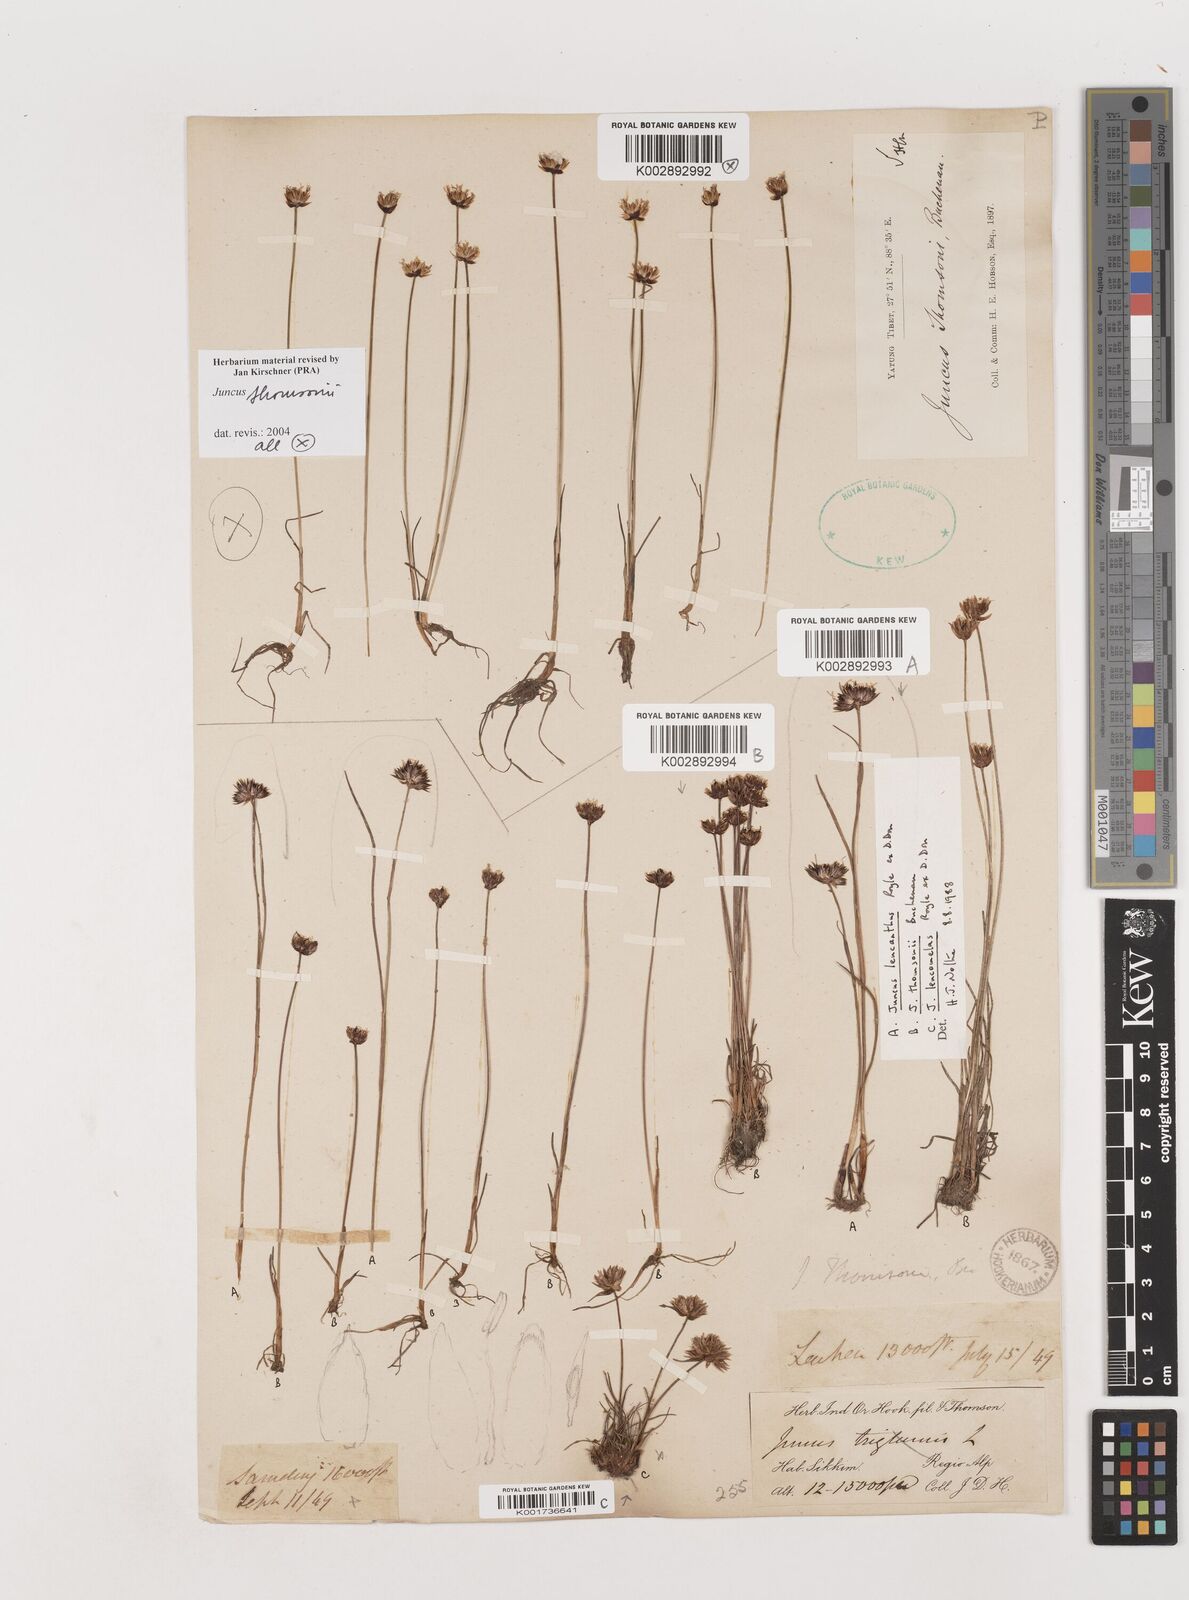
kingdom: Plantae
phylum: Tracheophyta
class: Liliopsida
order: Poales
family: Juncaceae
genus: Juncus
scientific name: Juncus
